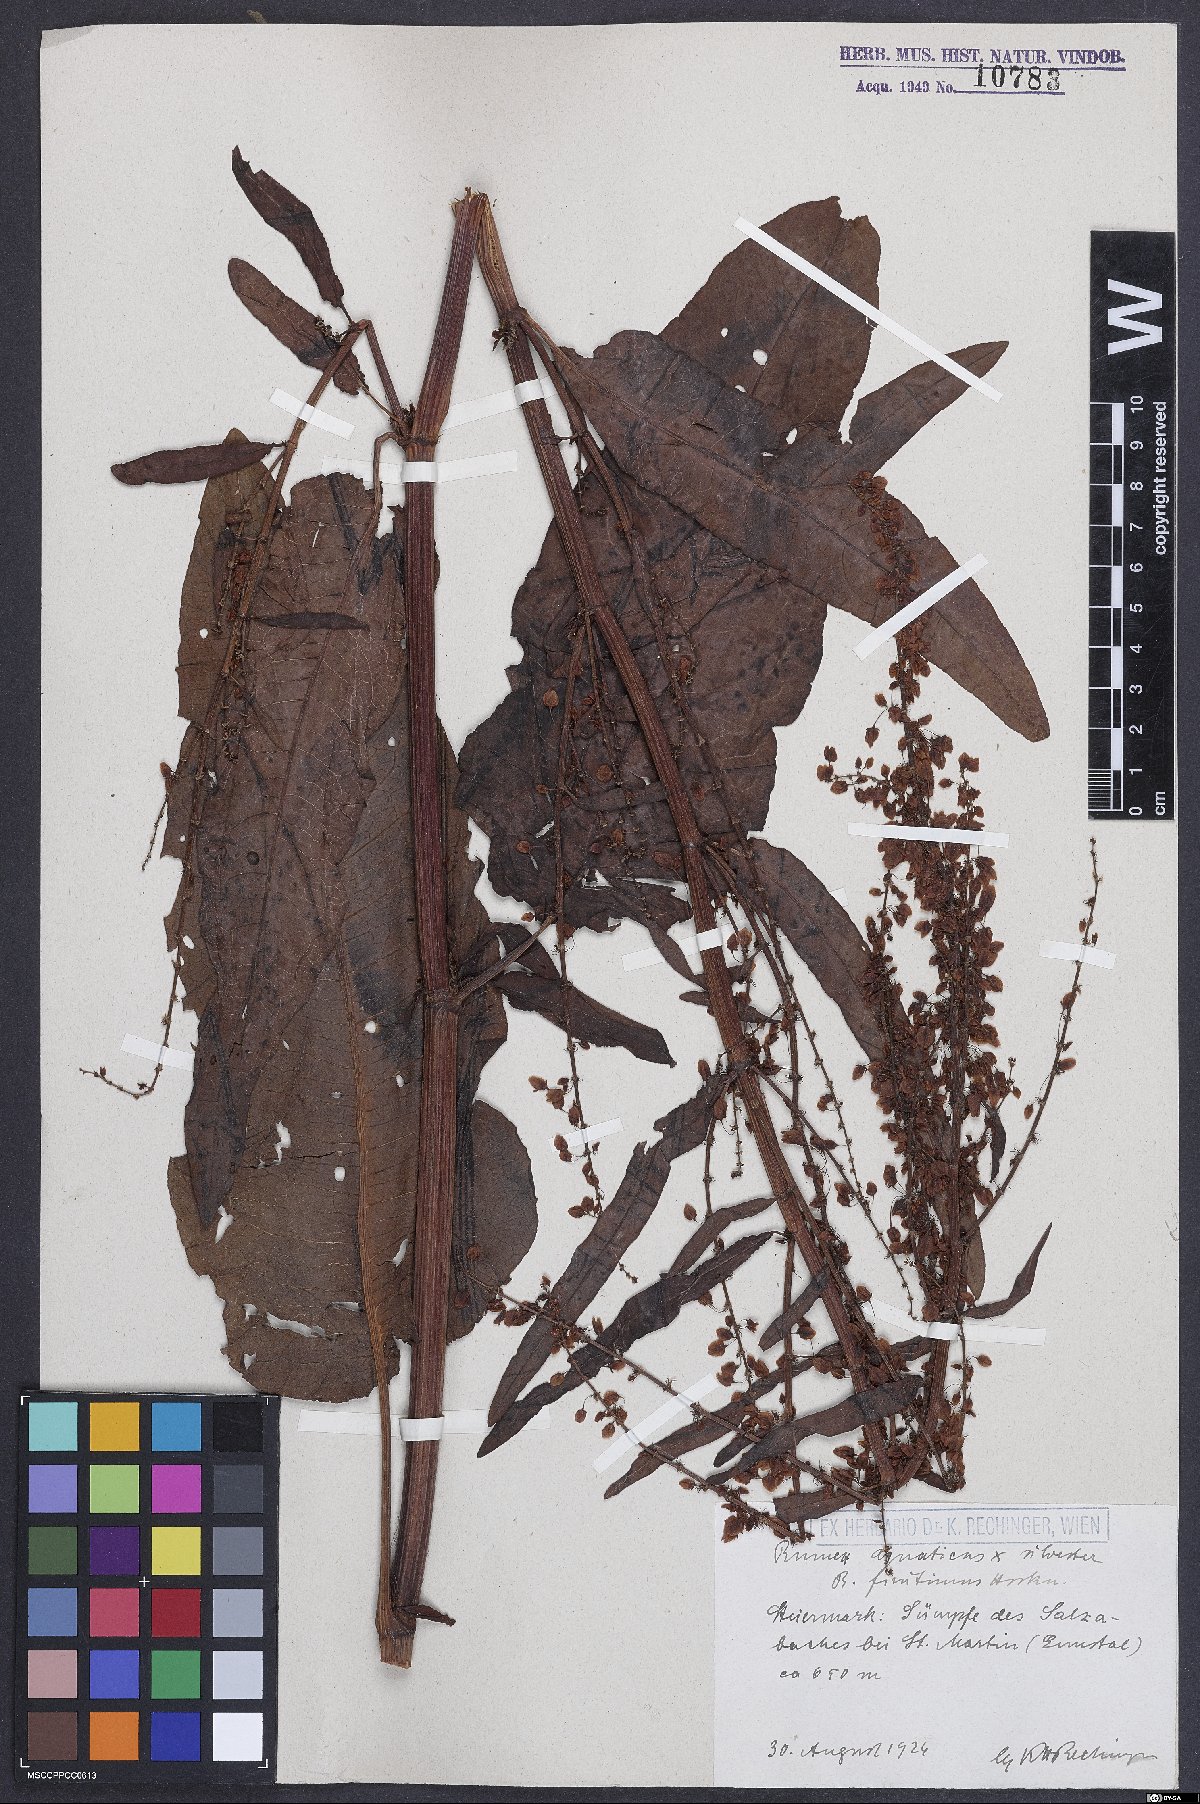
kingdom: Plantae
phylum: Tracheophyta
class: Magnoliopsida
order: Caryophyllales
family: Polygonaceae
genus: Rumex
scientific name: Rumex
